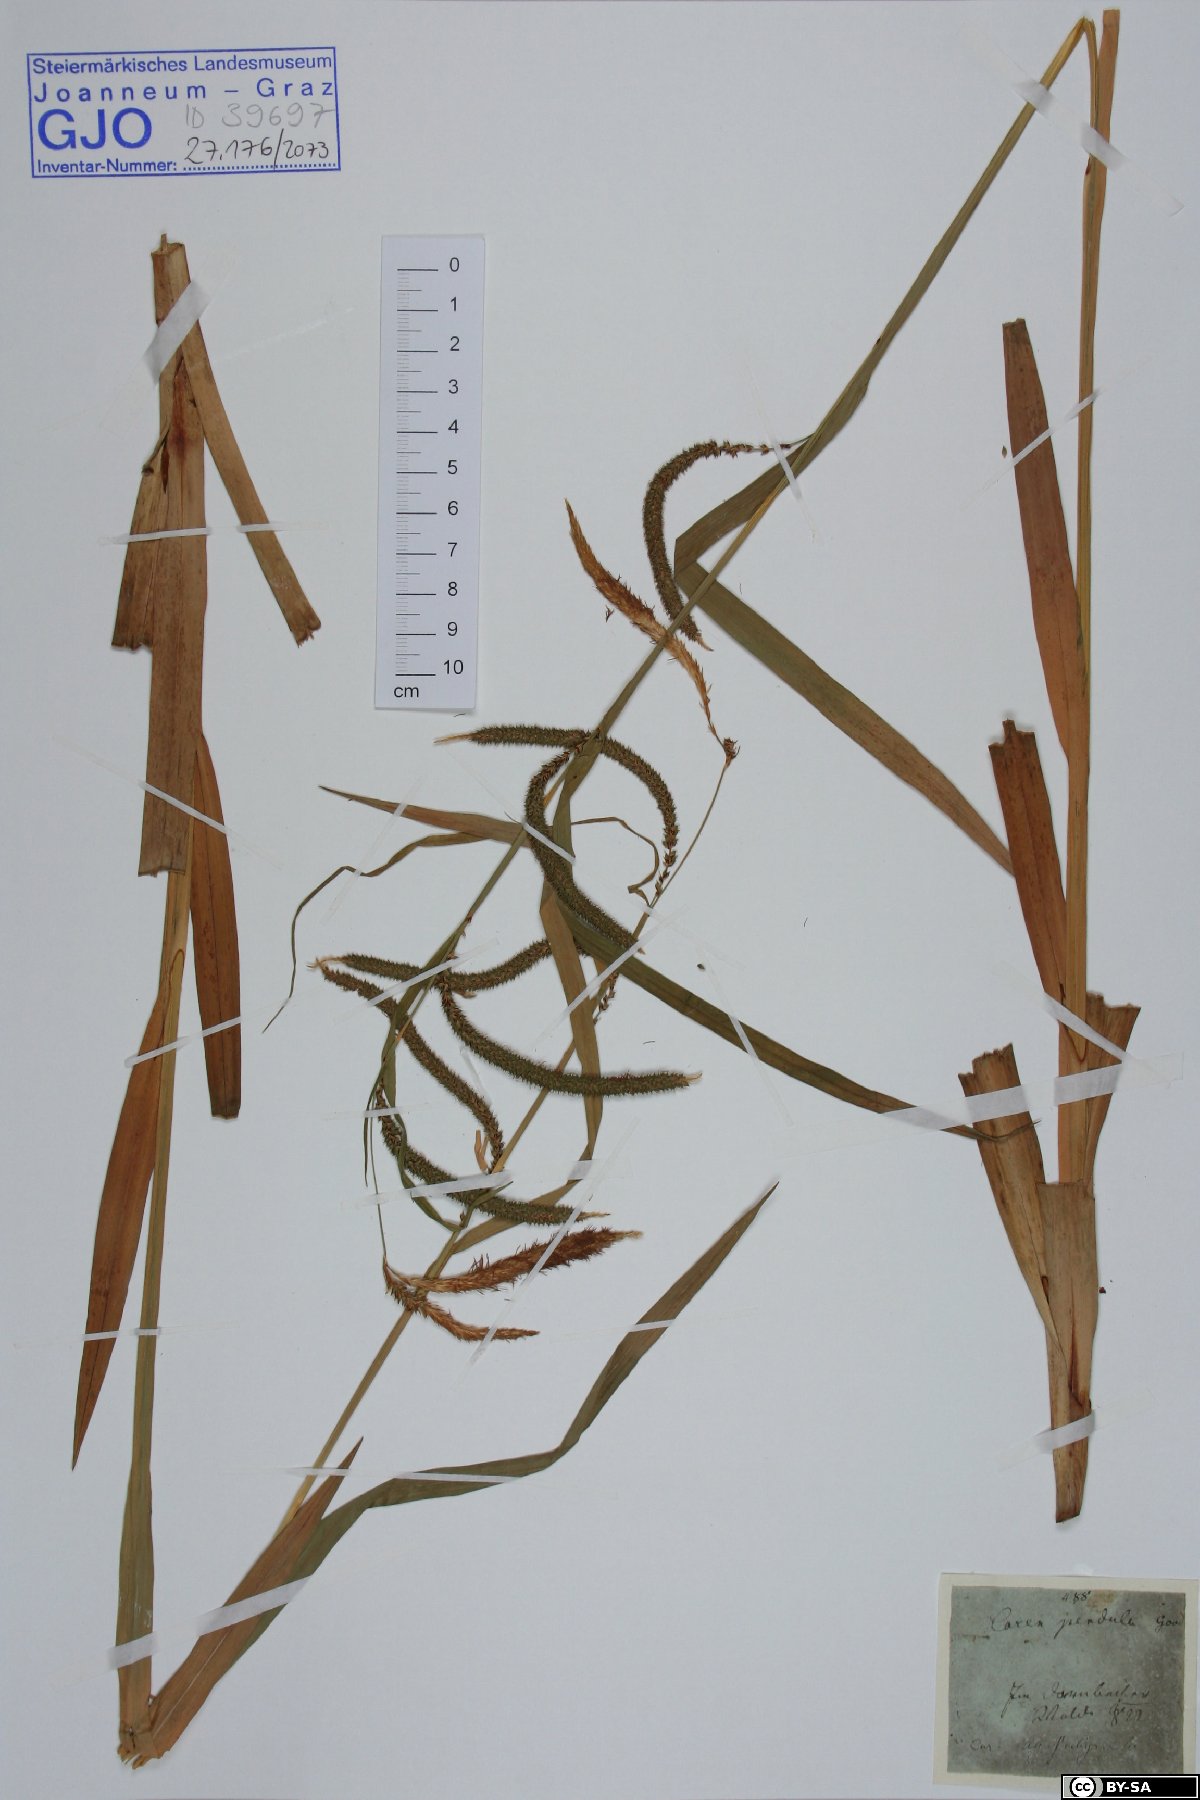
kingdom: Plantae
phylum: Tracheophyta
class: Liliopsida
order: Poales
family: Cyperaceae
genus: Carex
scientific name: Carex pendula
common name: Pendulous sedge
